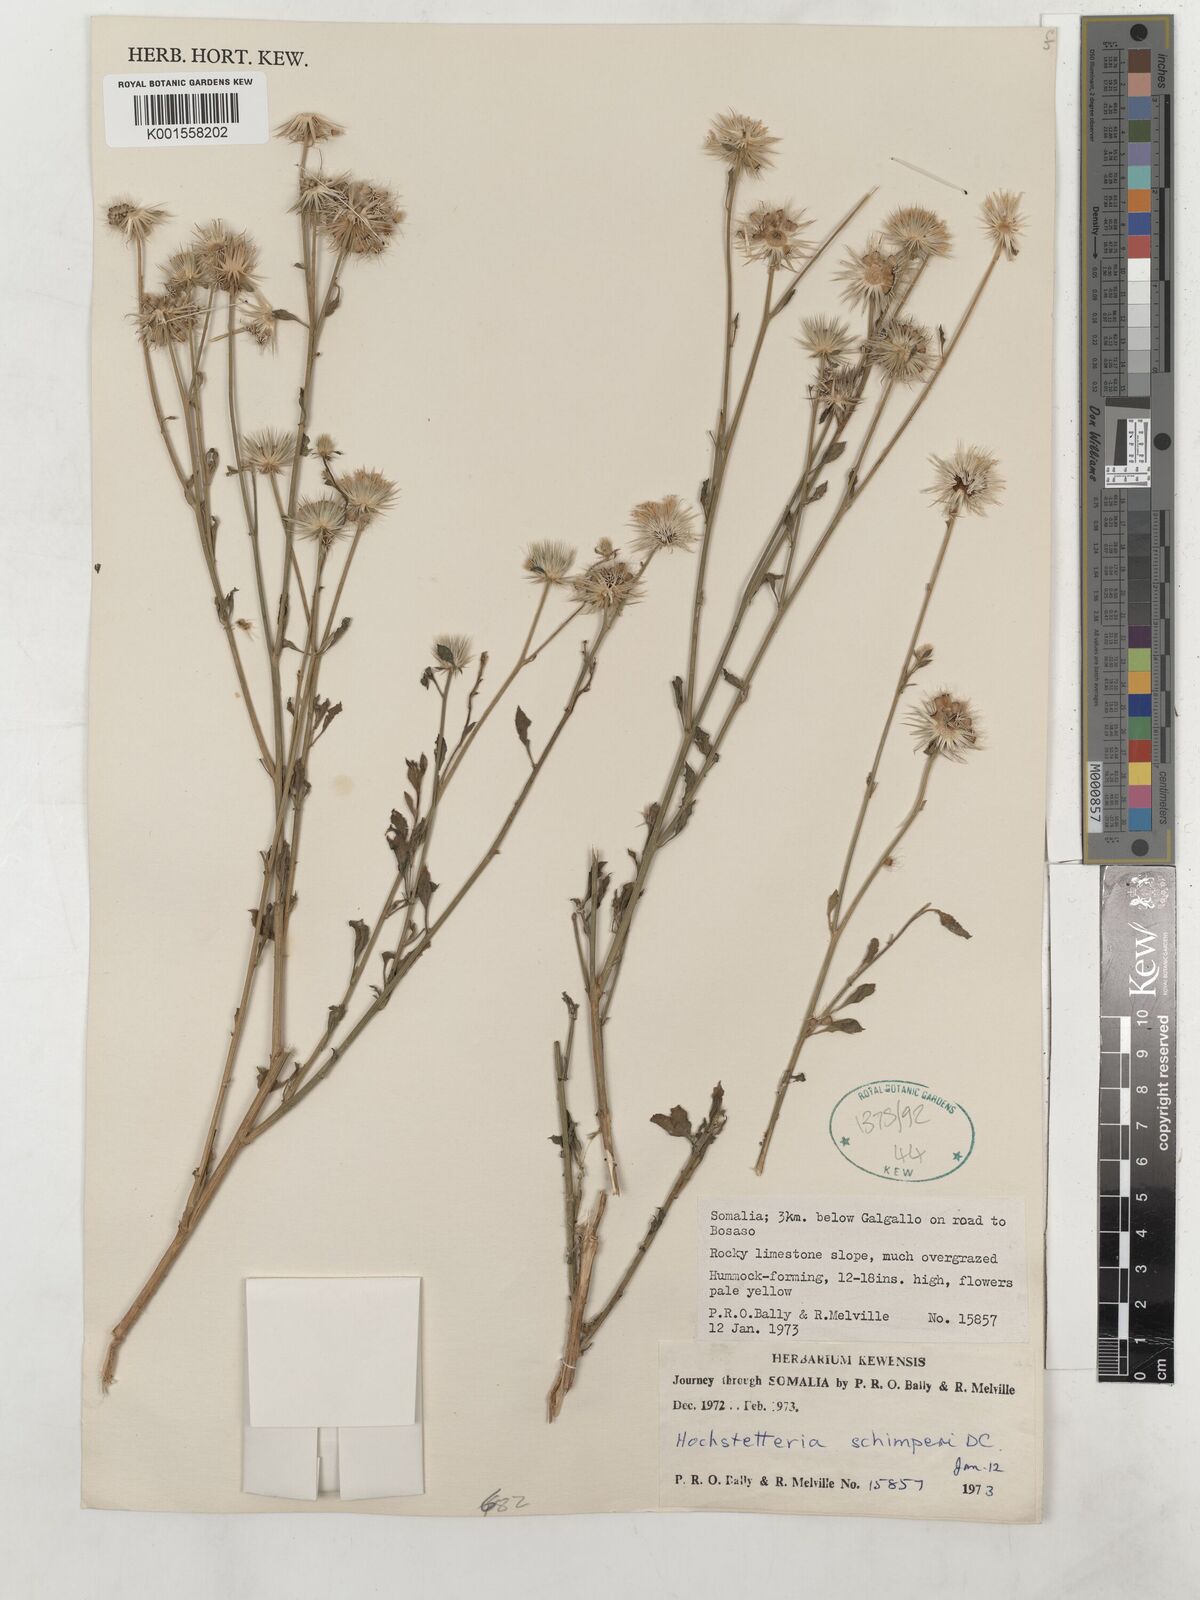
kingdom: Plantae
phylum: Tracheophyta
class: Magnoliopsida
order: Asterales
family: Asteraceae
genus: Dicoma
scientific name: Dicoma schimperi
